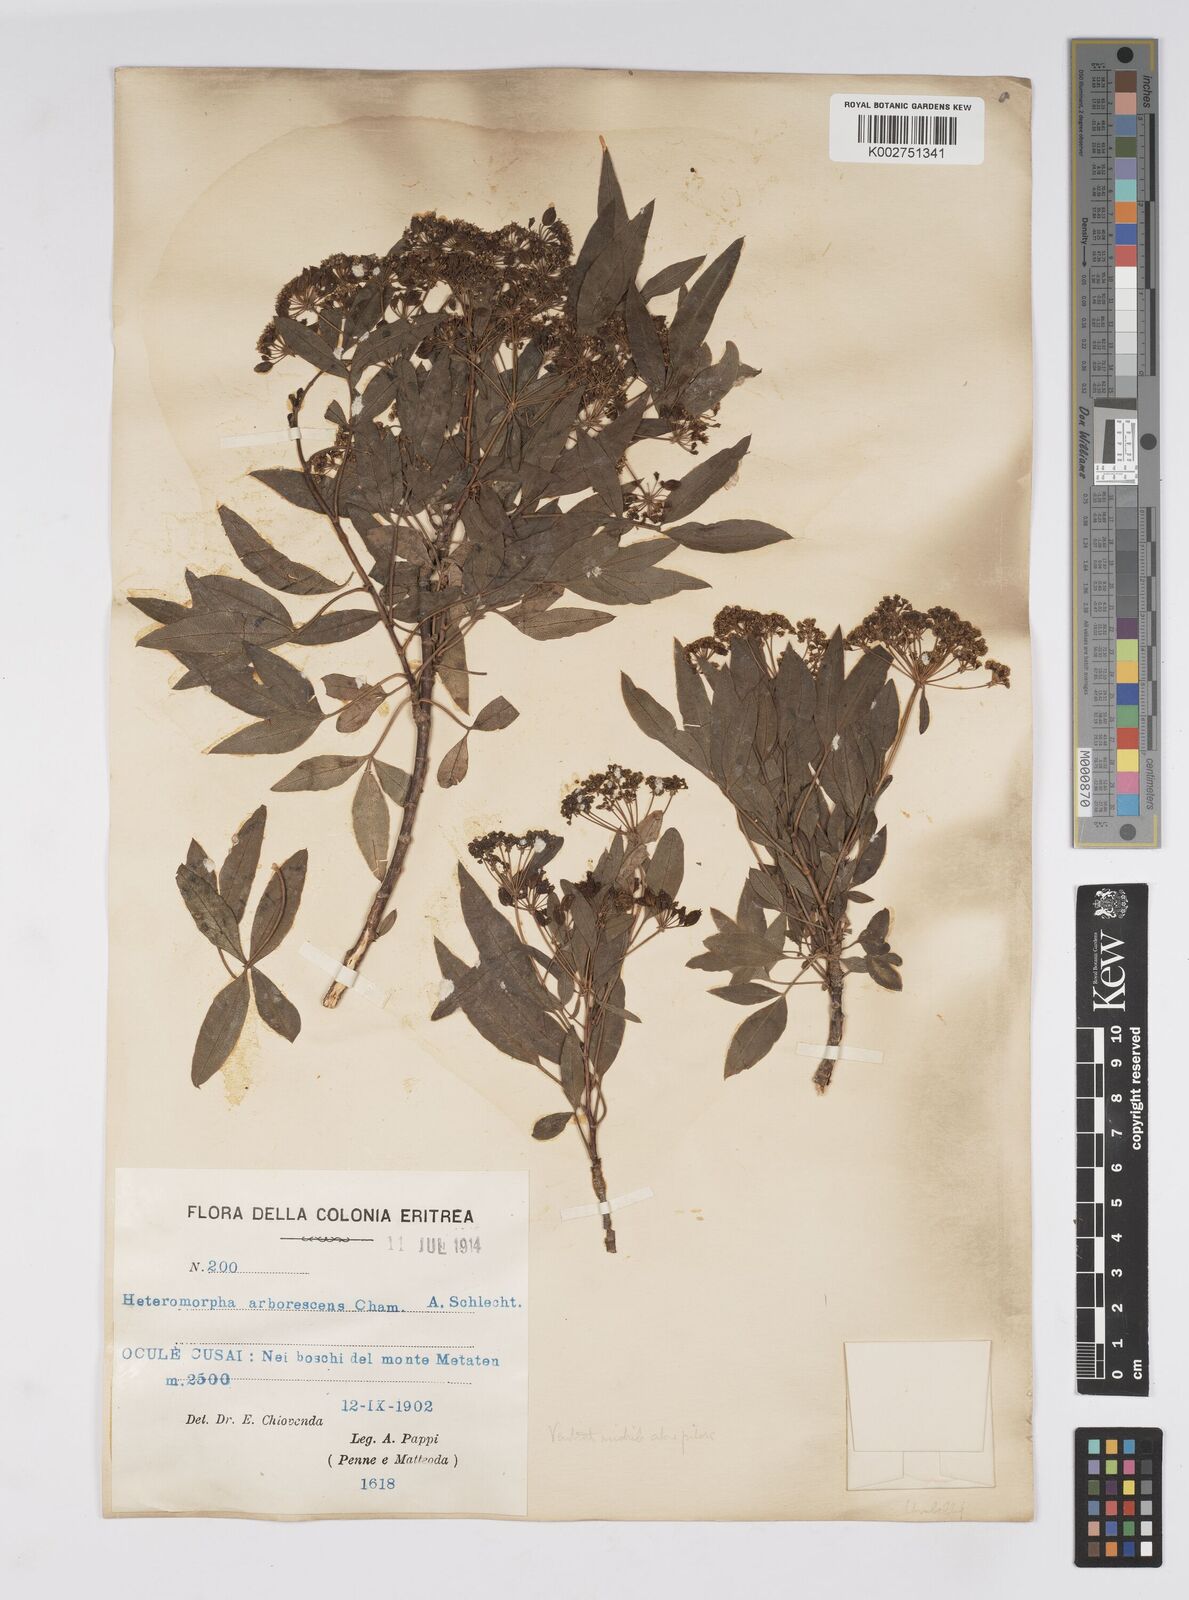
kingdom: Plantae
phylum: Tracheophyta
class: Magnoliopsida
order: Apiales
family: Apiaceae
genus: Heteromorpha
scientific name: Heteromorpha
